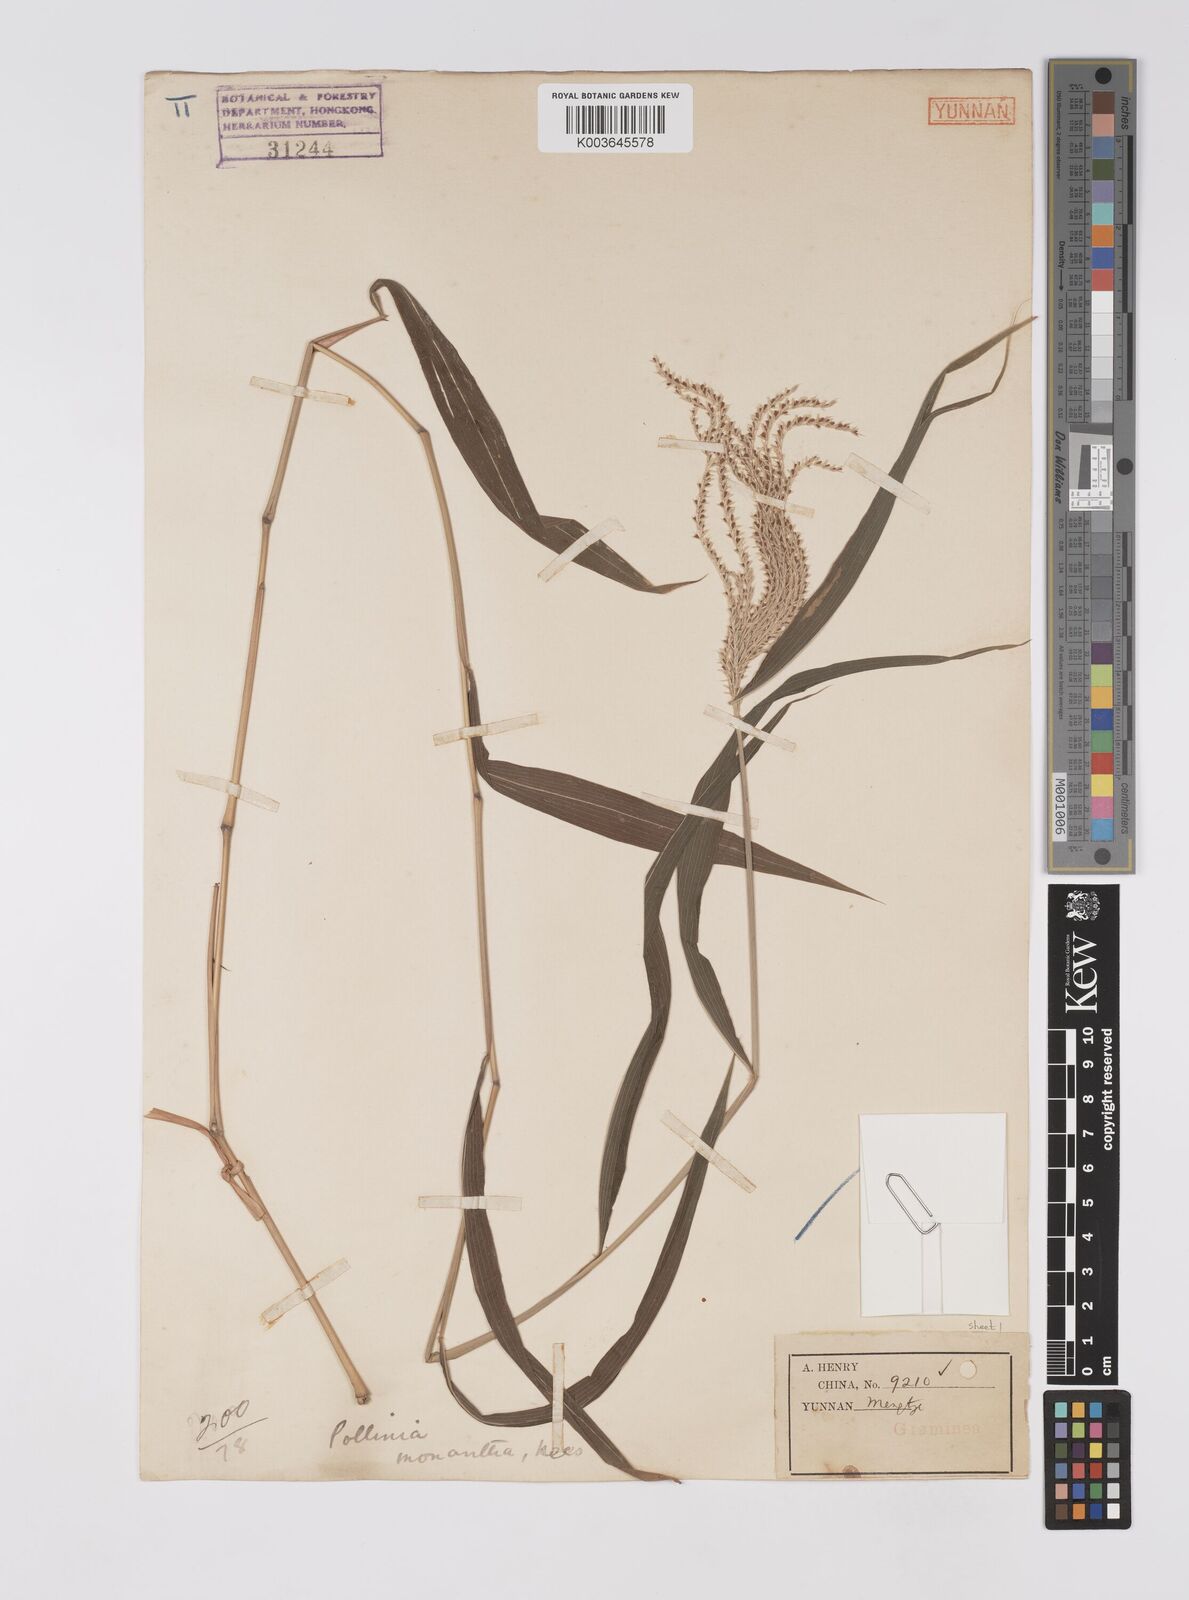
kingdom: Plantae
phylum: Tracheophyta
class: Liliopsida
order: Poales
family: Poaceae
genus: Microstegium
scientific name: Microstegium fasciculatum
